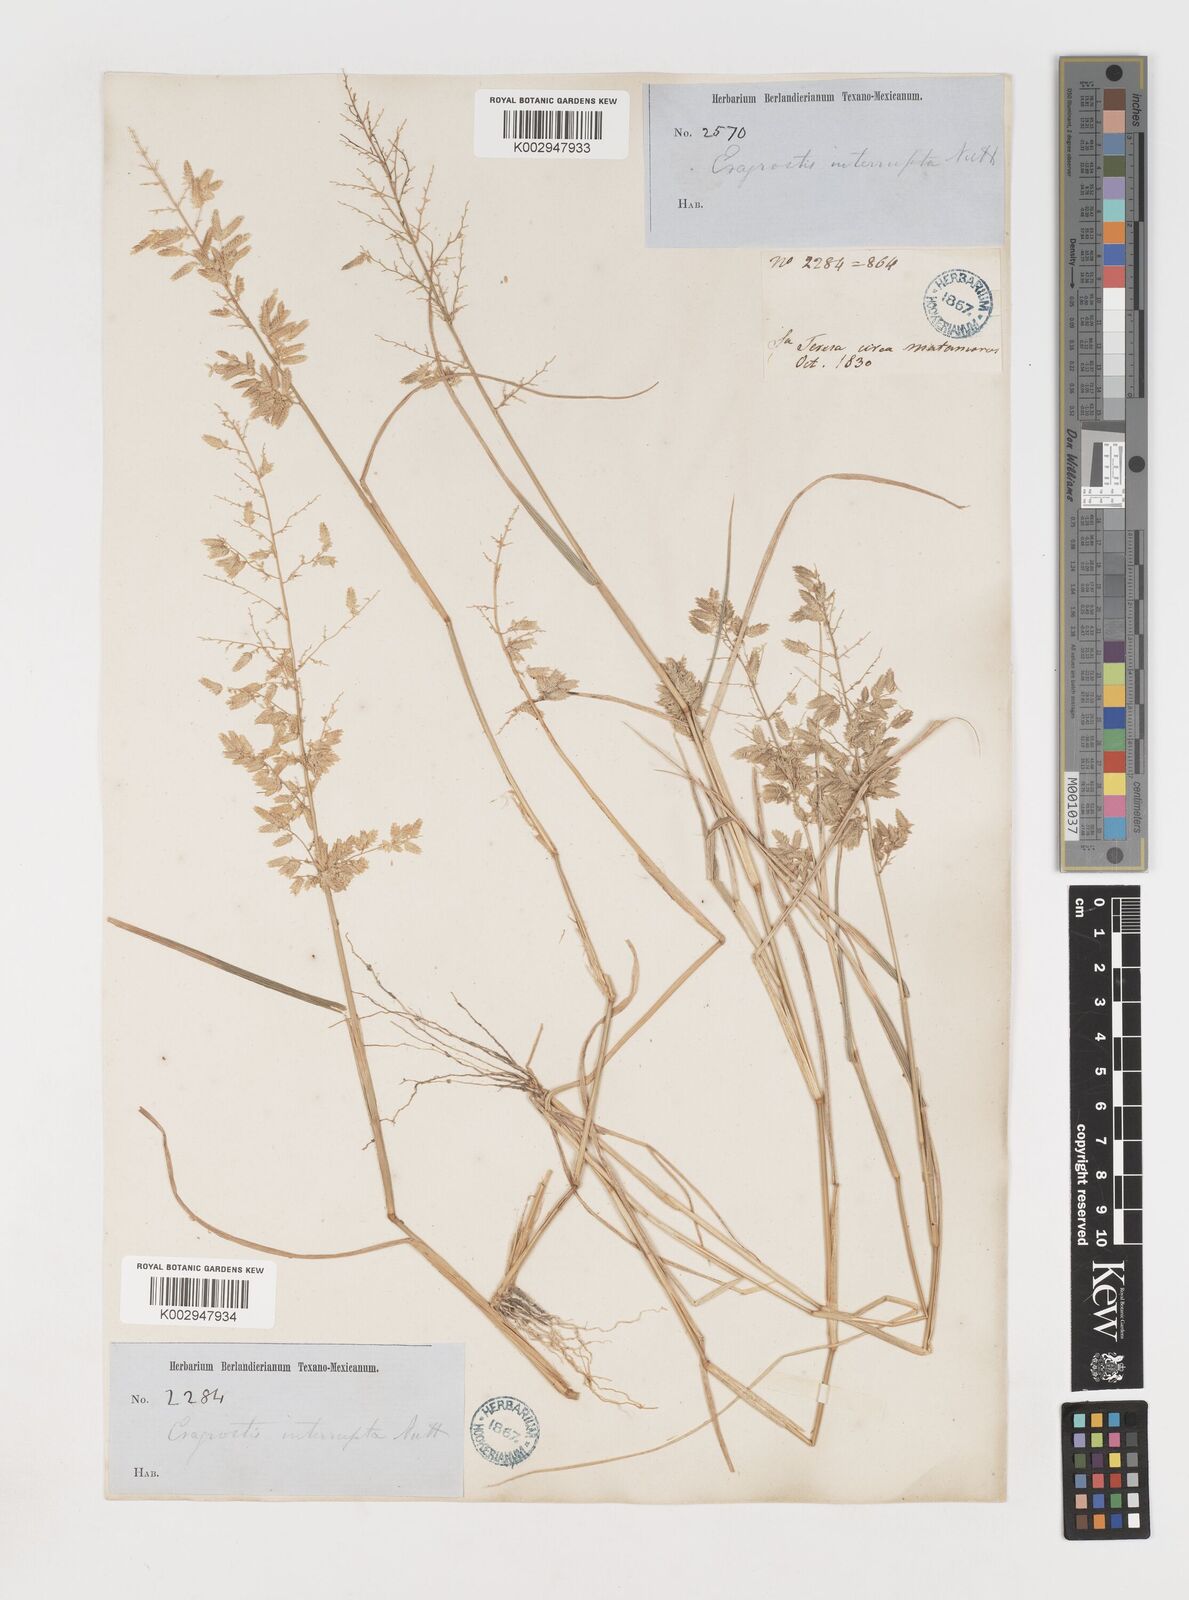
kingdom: Plantae
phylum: Tracheophyta
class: Liliopsida
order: Poales
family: Poaceae
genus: Eragrostis
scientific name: Eragrostis
